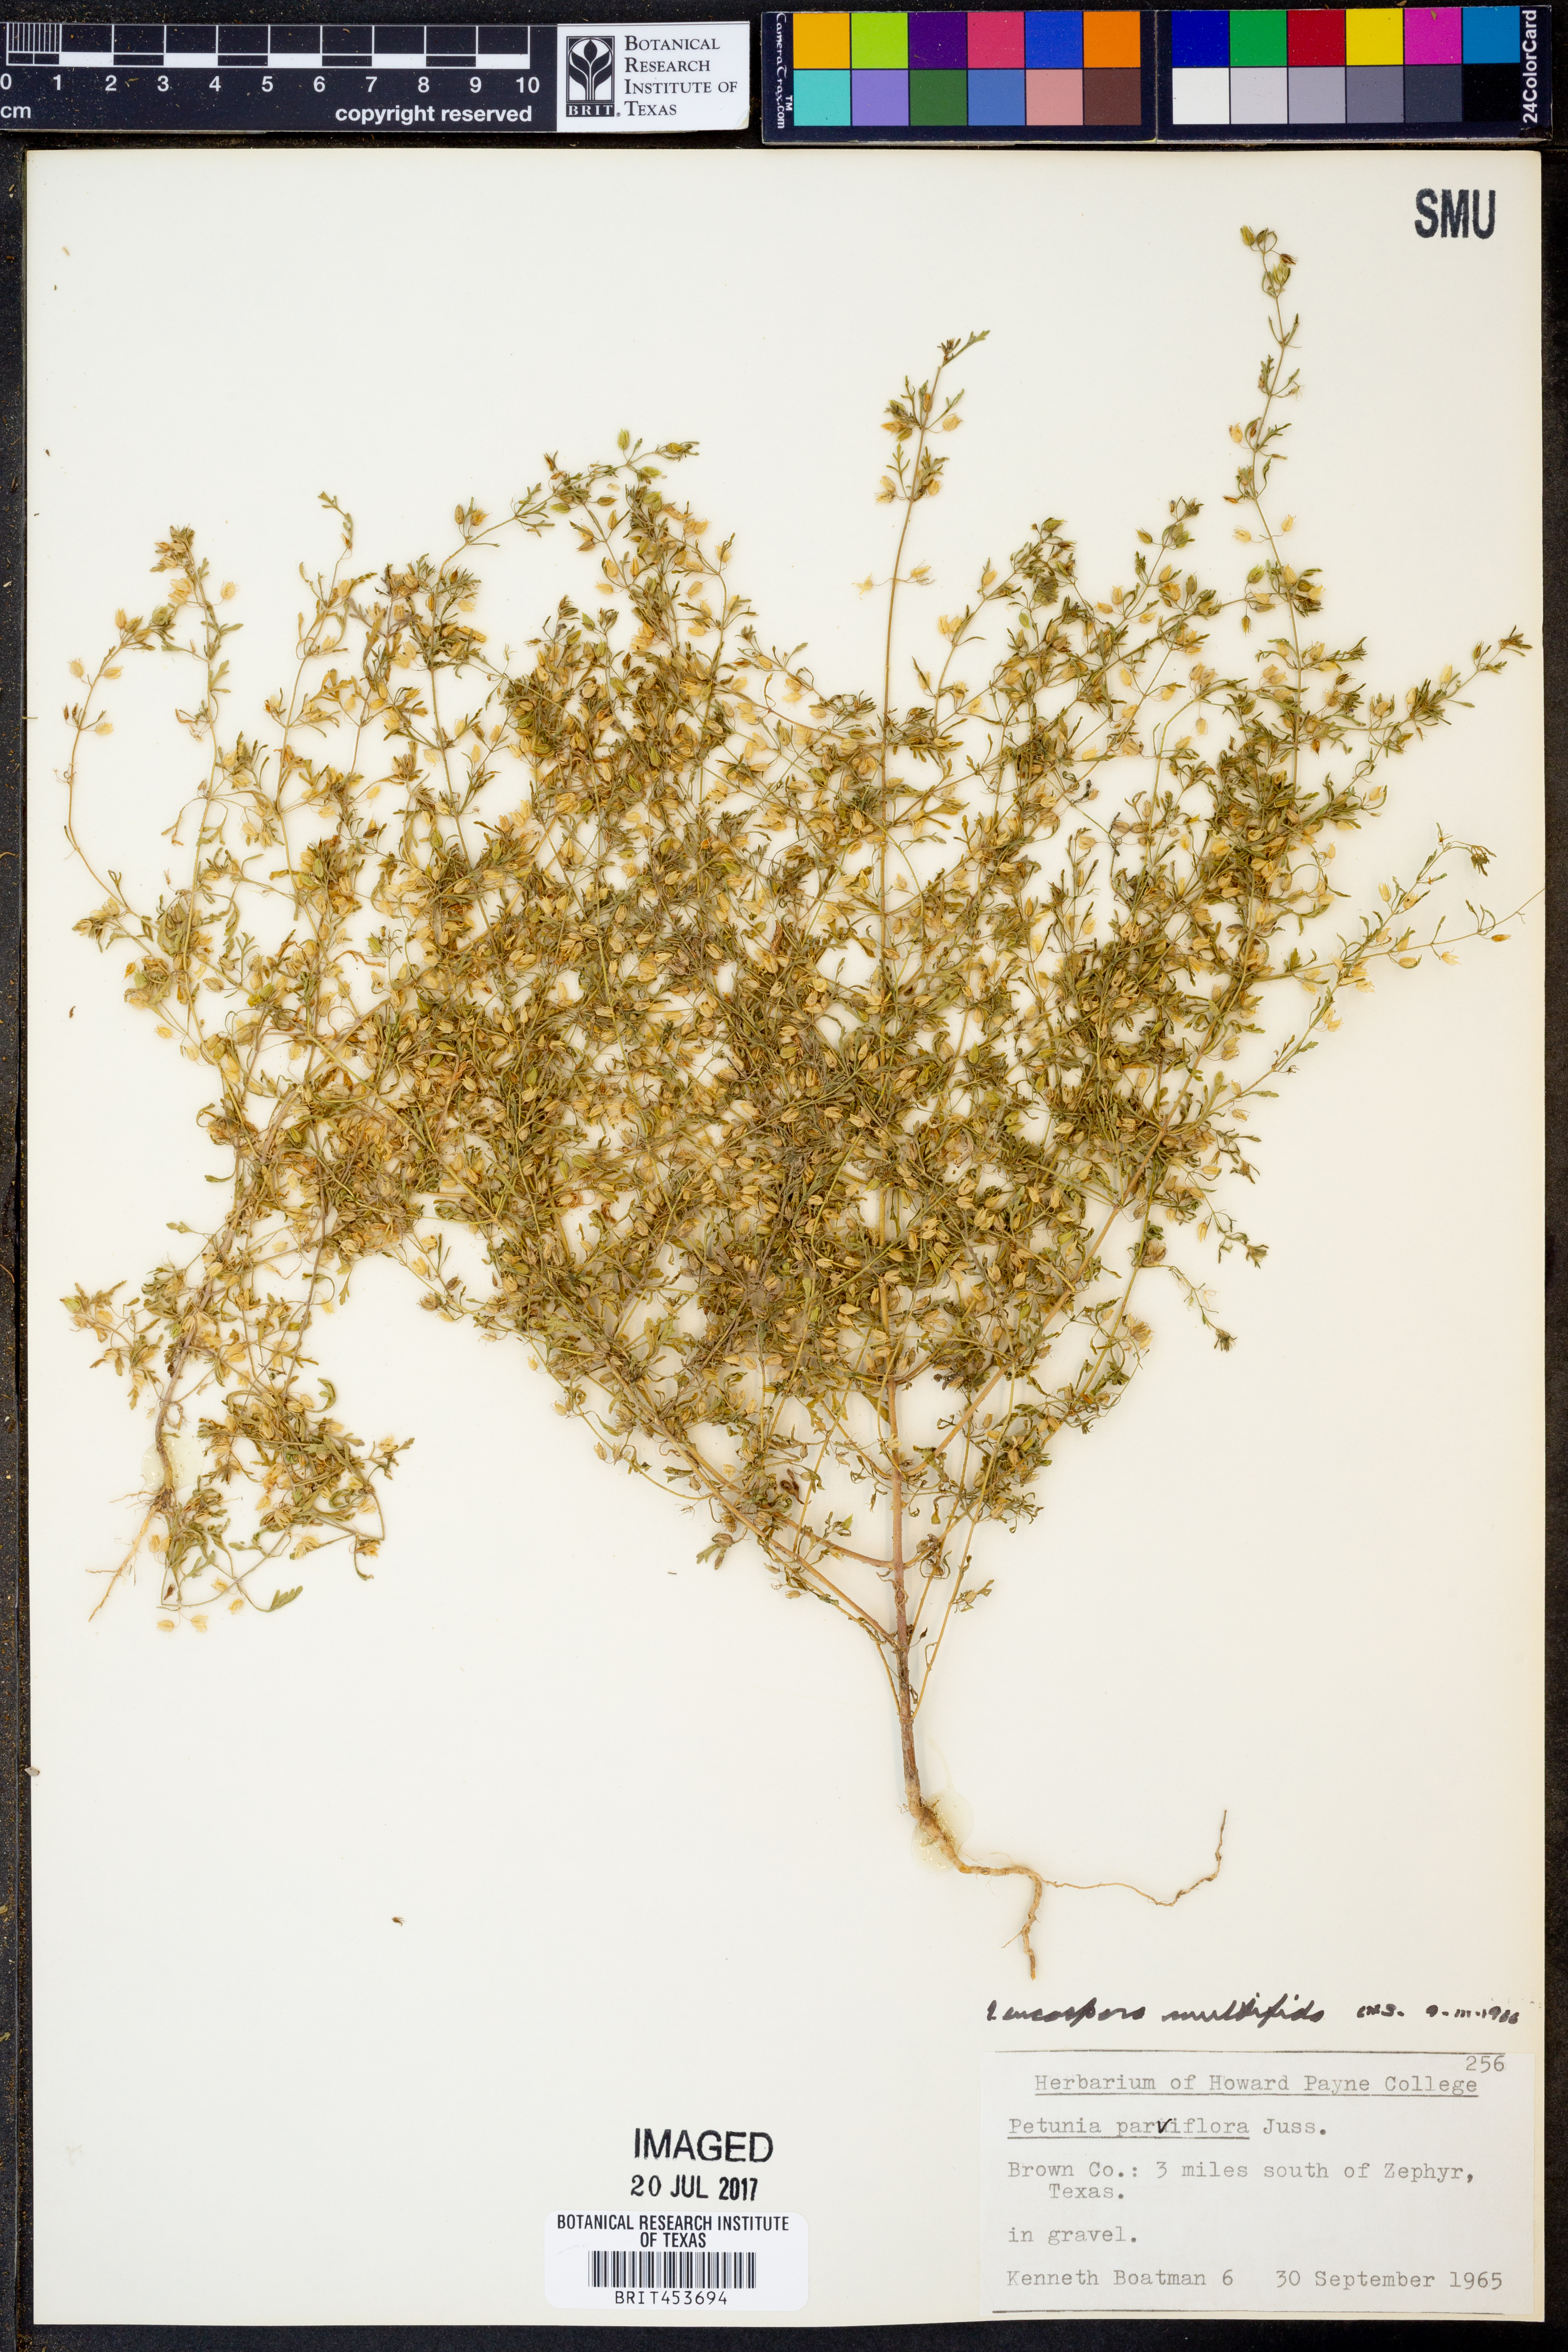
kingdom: Plantae
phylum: Tracheophyta
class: Magnoliopsida
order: Lamiales
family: Plantaginaceae
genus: Leucospora
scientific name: Leucospora multifida
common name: Narrow-leaf paleseed
